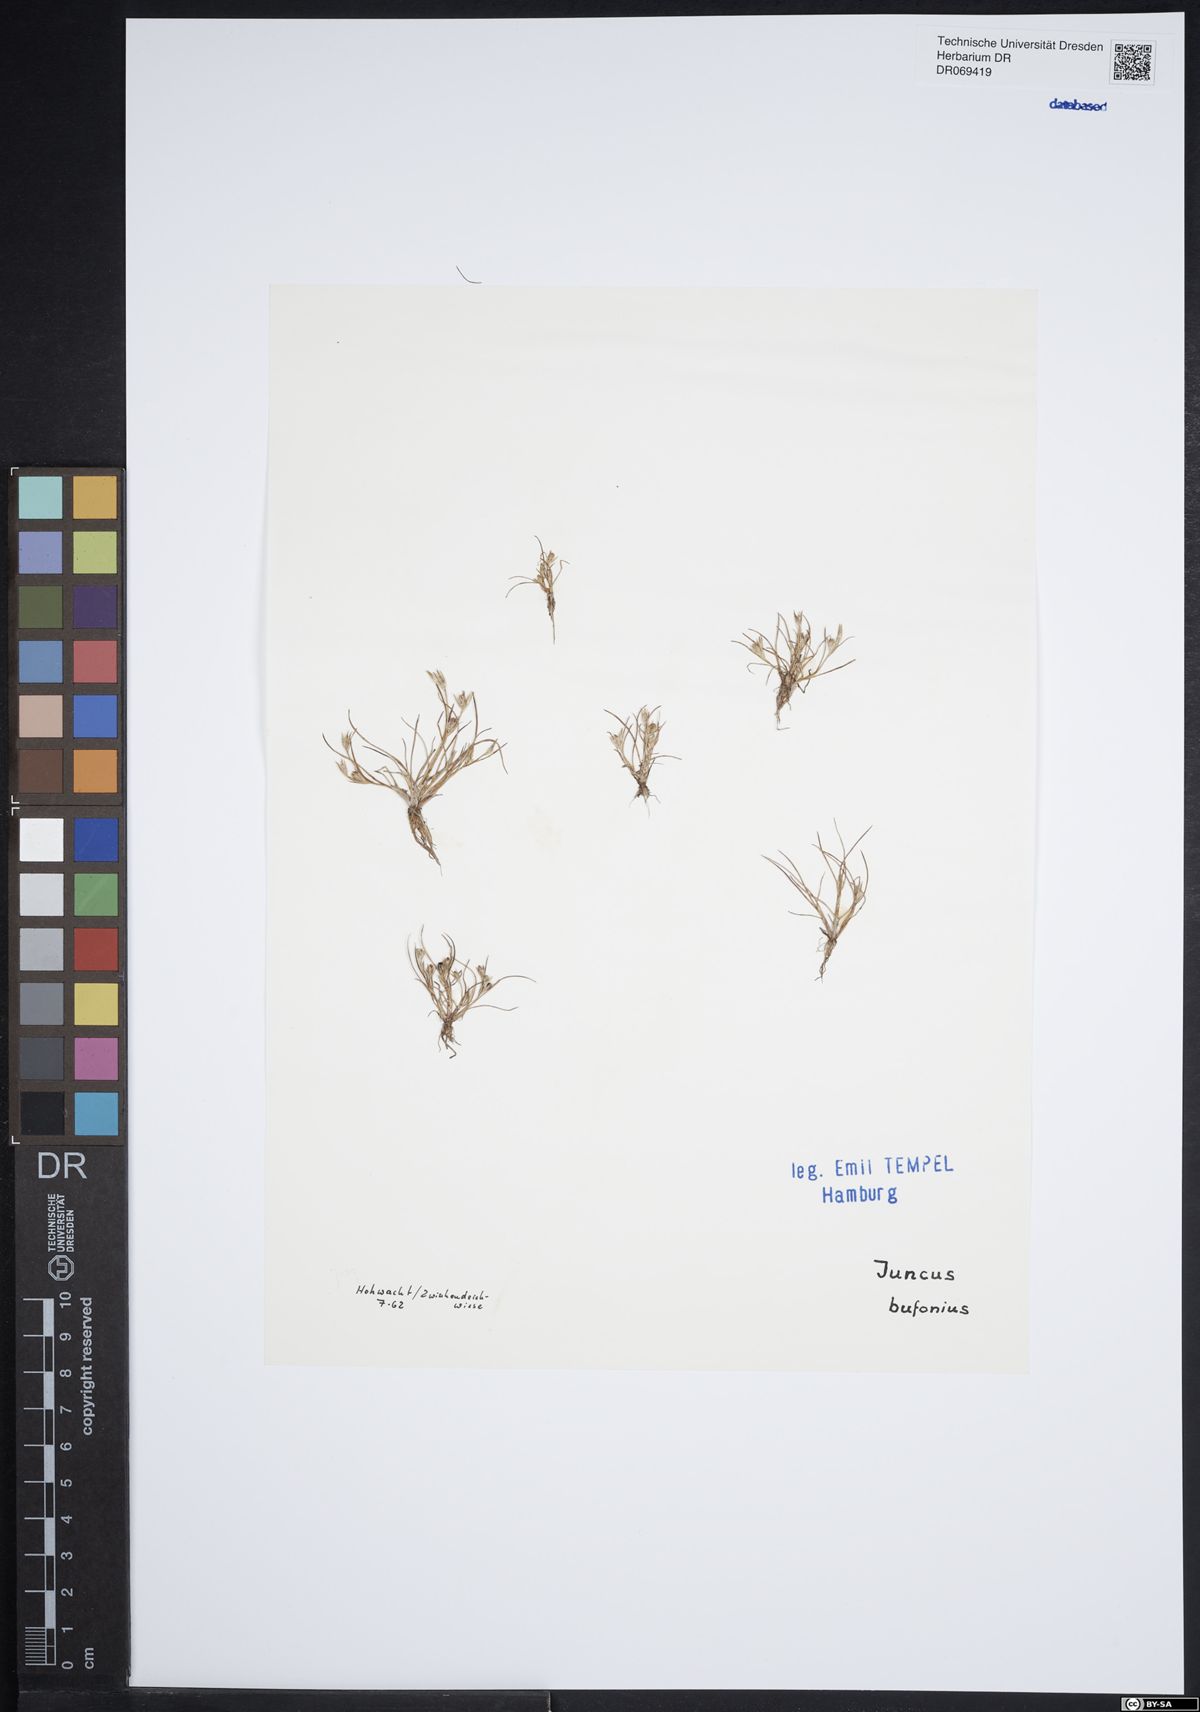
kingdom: Plantae
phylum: Tracheophyta
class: Liliopsida
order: Poales
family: Juncaceae
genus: Juncus
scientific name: Juncus bufonius
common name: Toad rush
